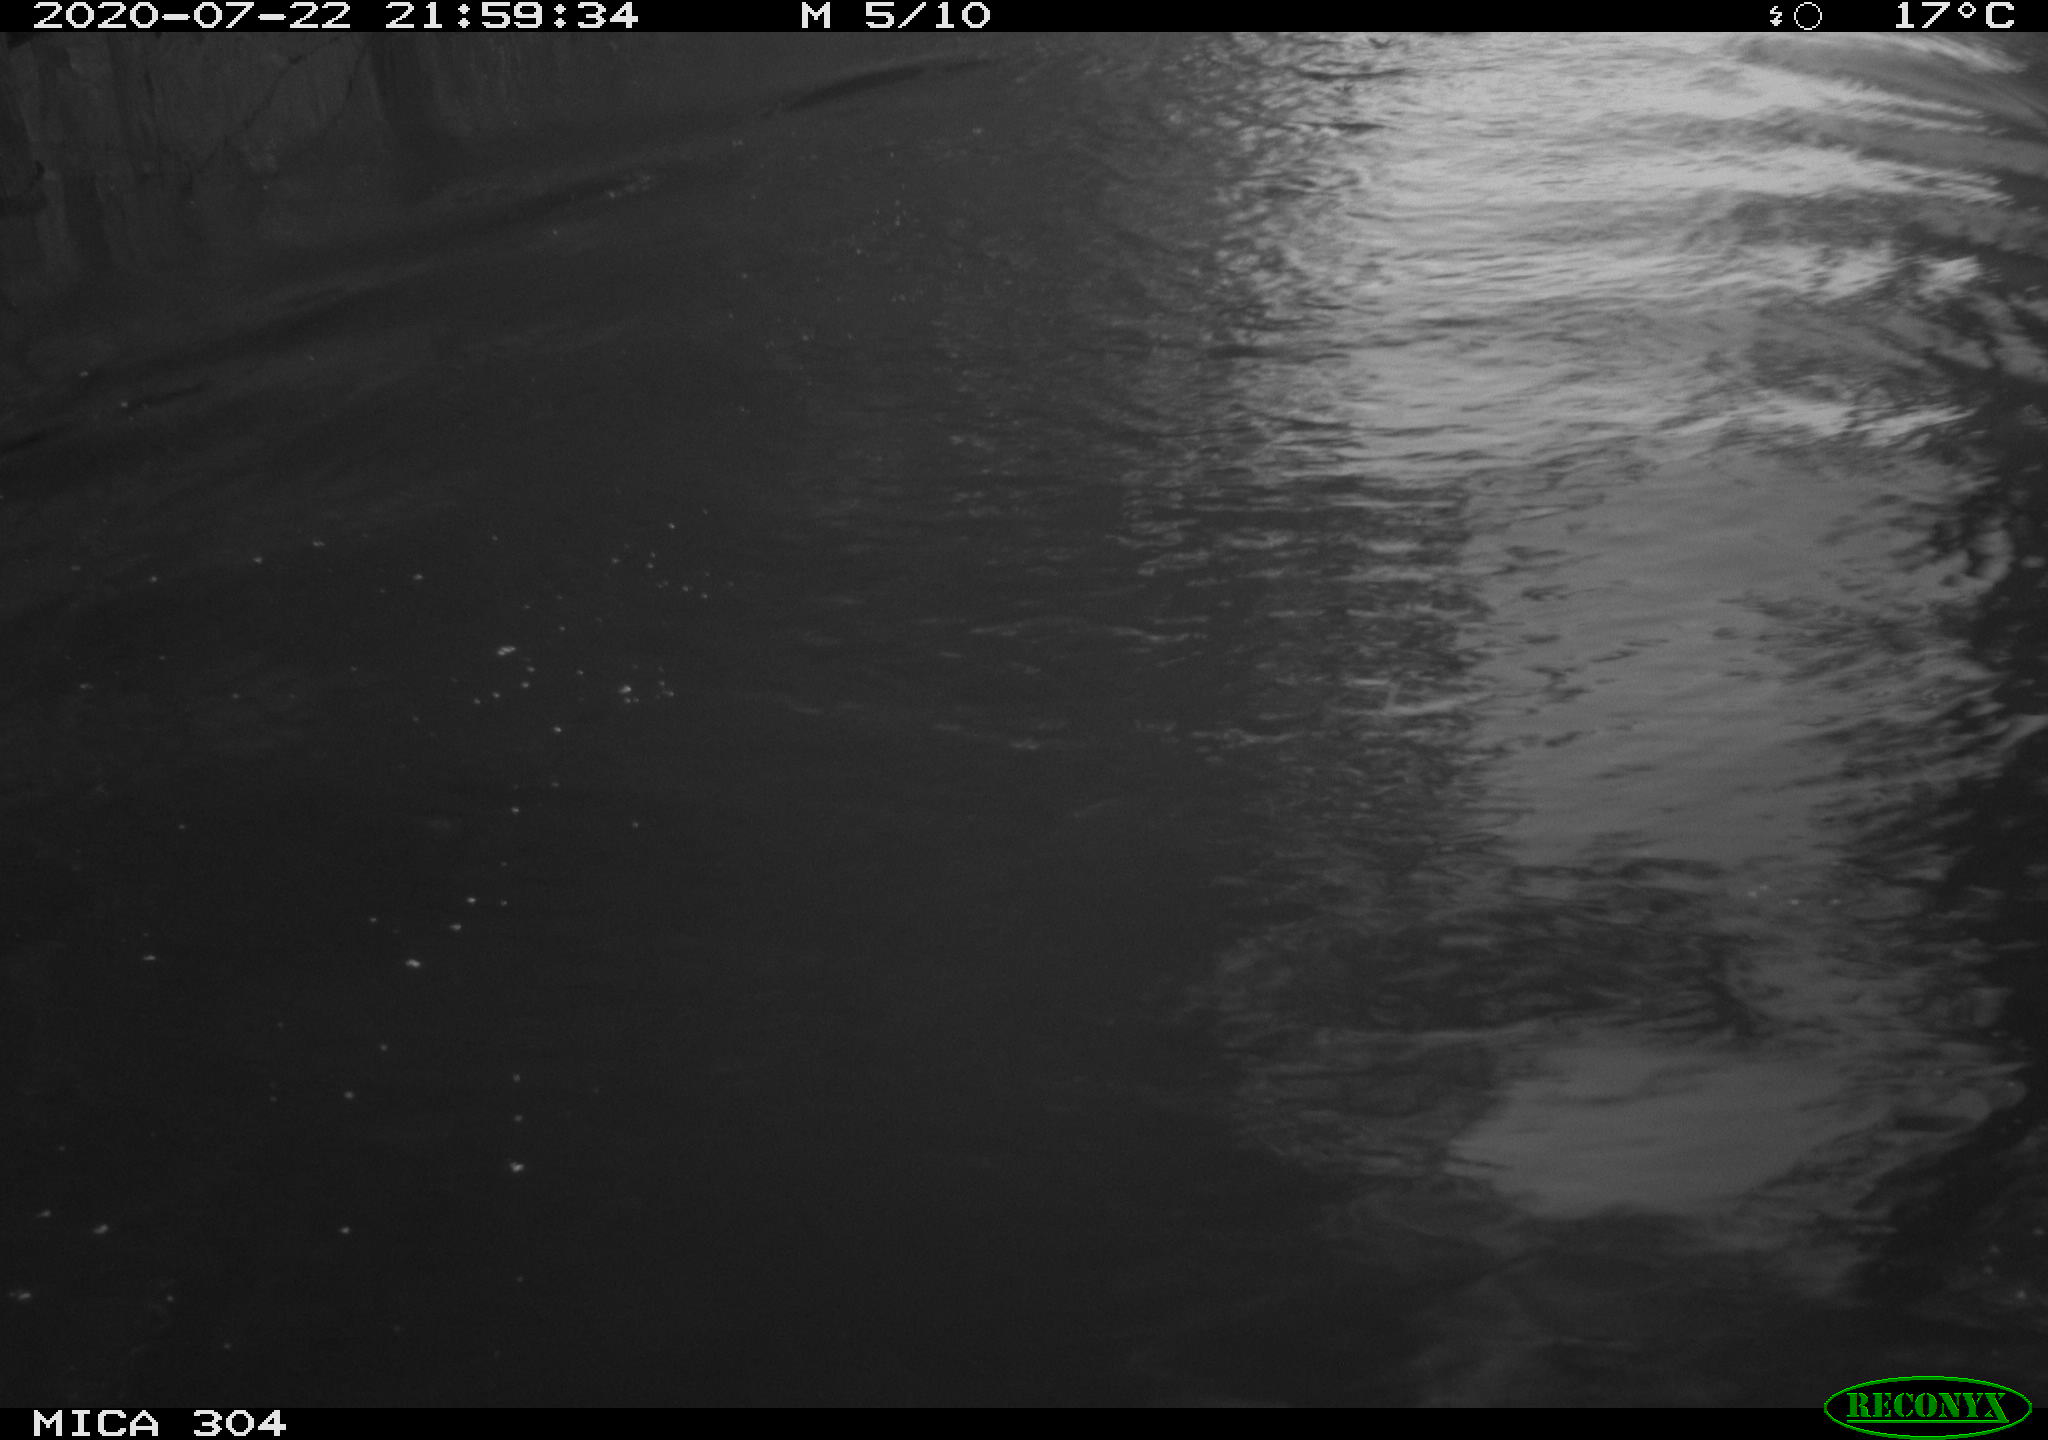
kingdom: Animalia
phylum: Chordata
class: Aves
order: Anseriformes
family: Anatidae
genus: Anas
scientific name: Anas platyrhynchos
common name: Mallard
